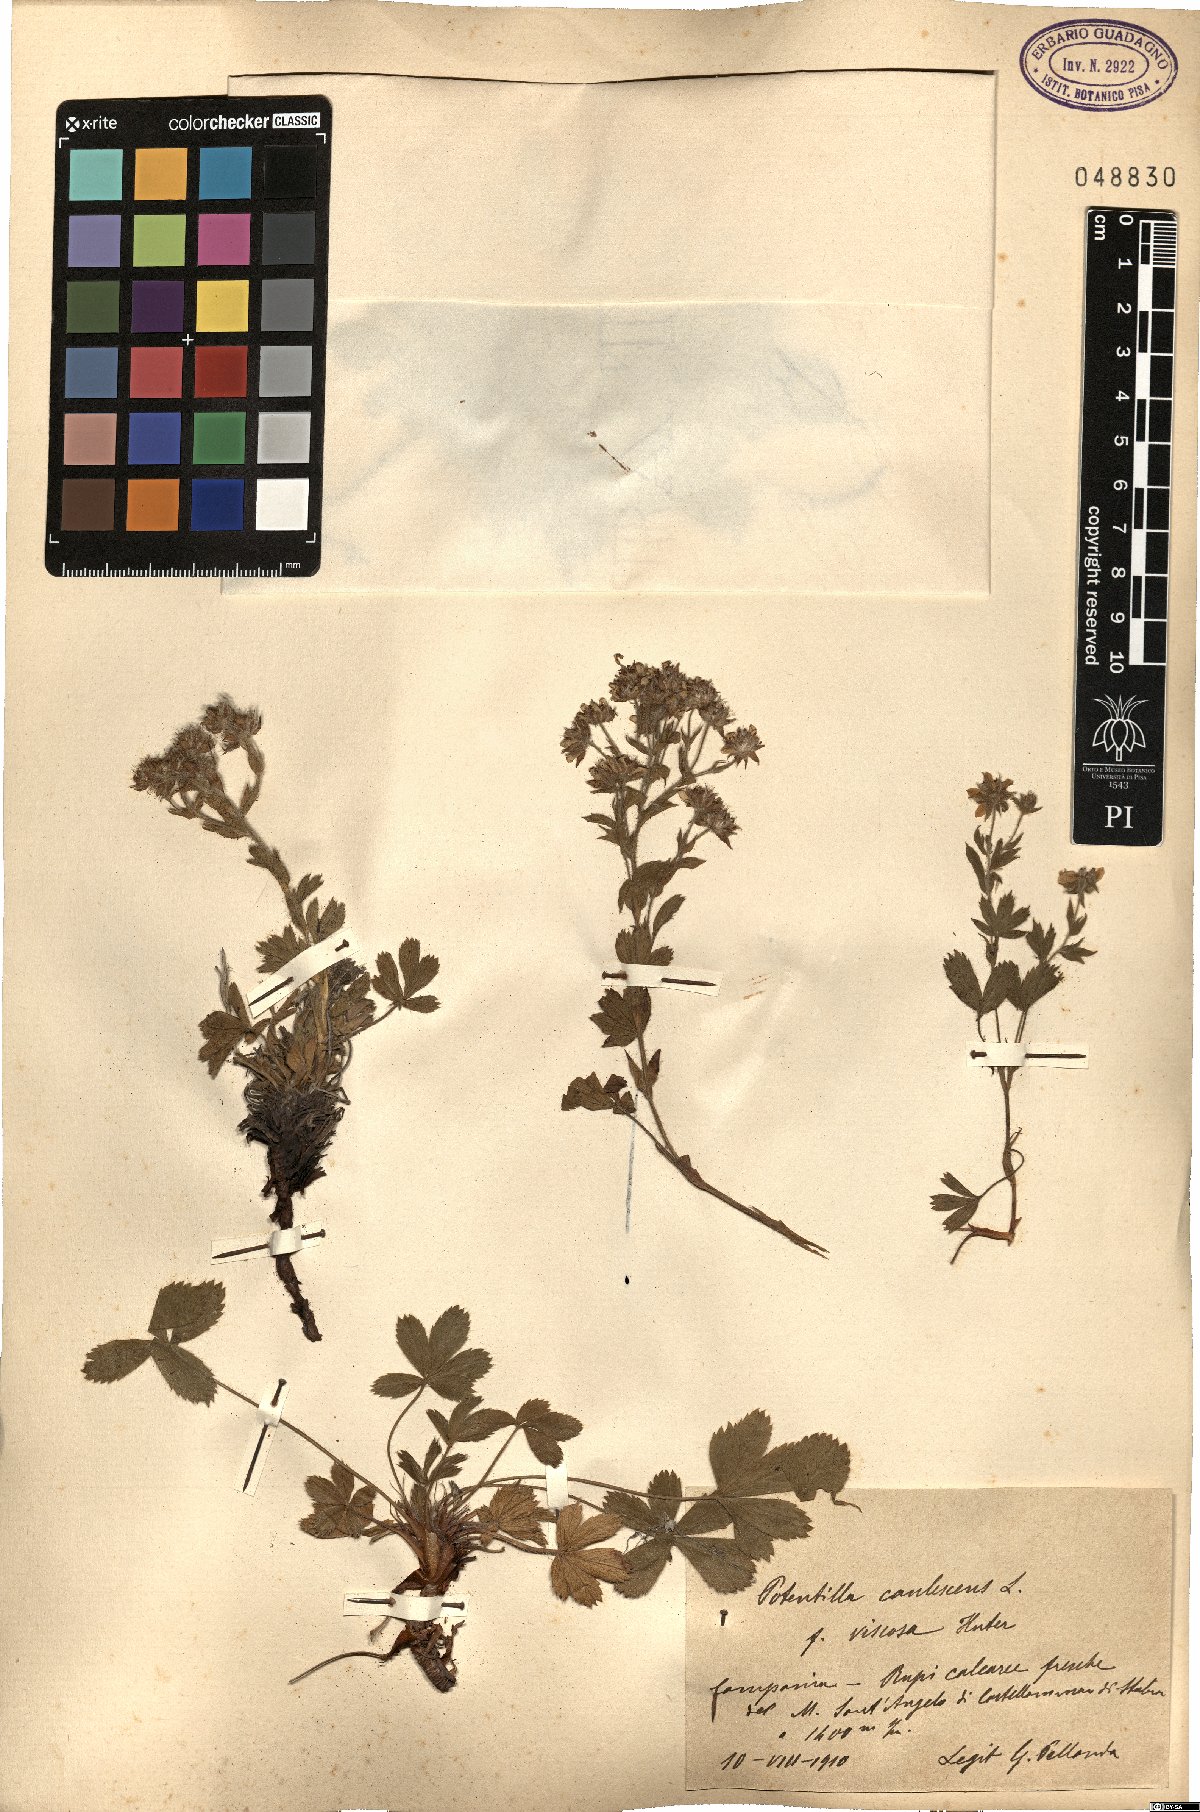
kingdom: Plantae
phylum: Tracheophyta
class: Magnoliopsida
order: Rosales
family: Rosaceae
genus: Potentilla
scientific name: Potentilla caulescens
